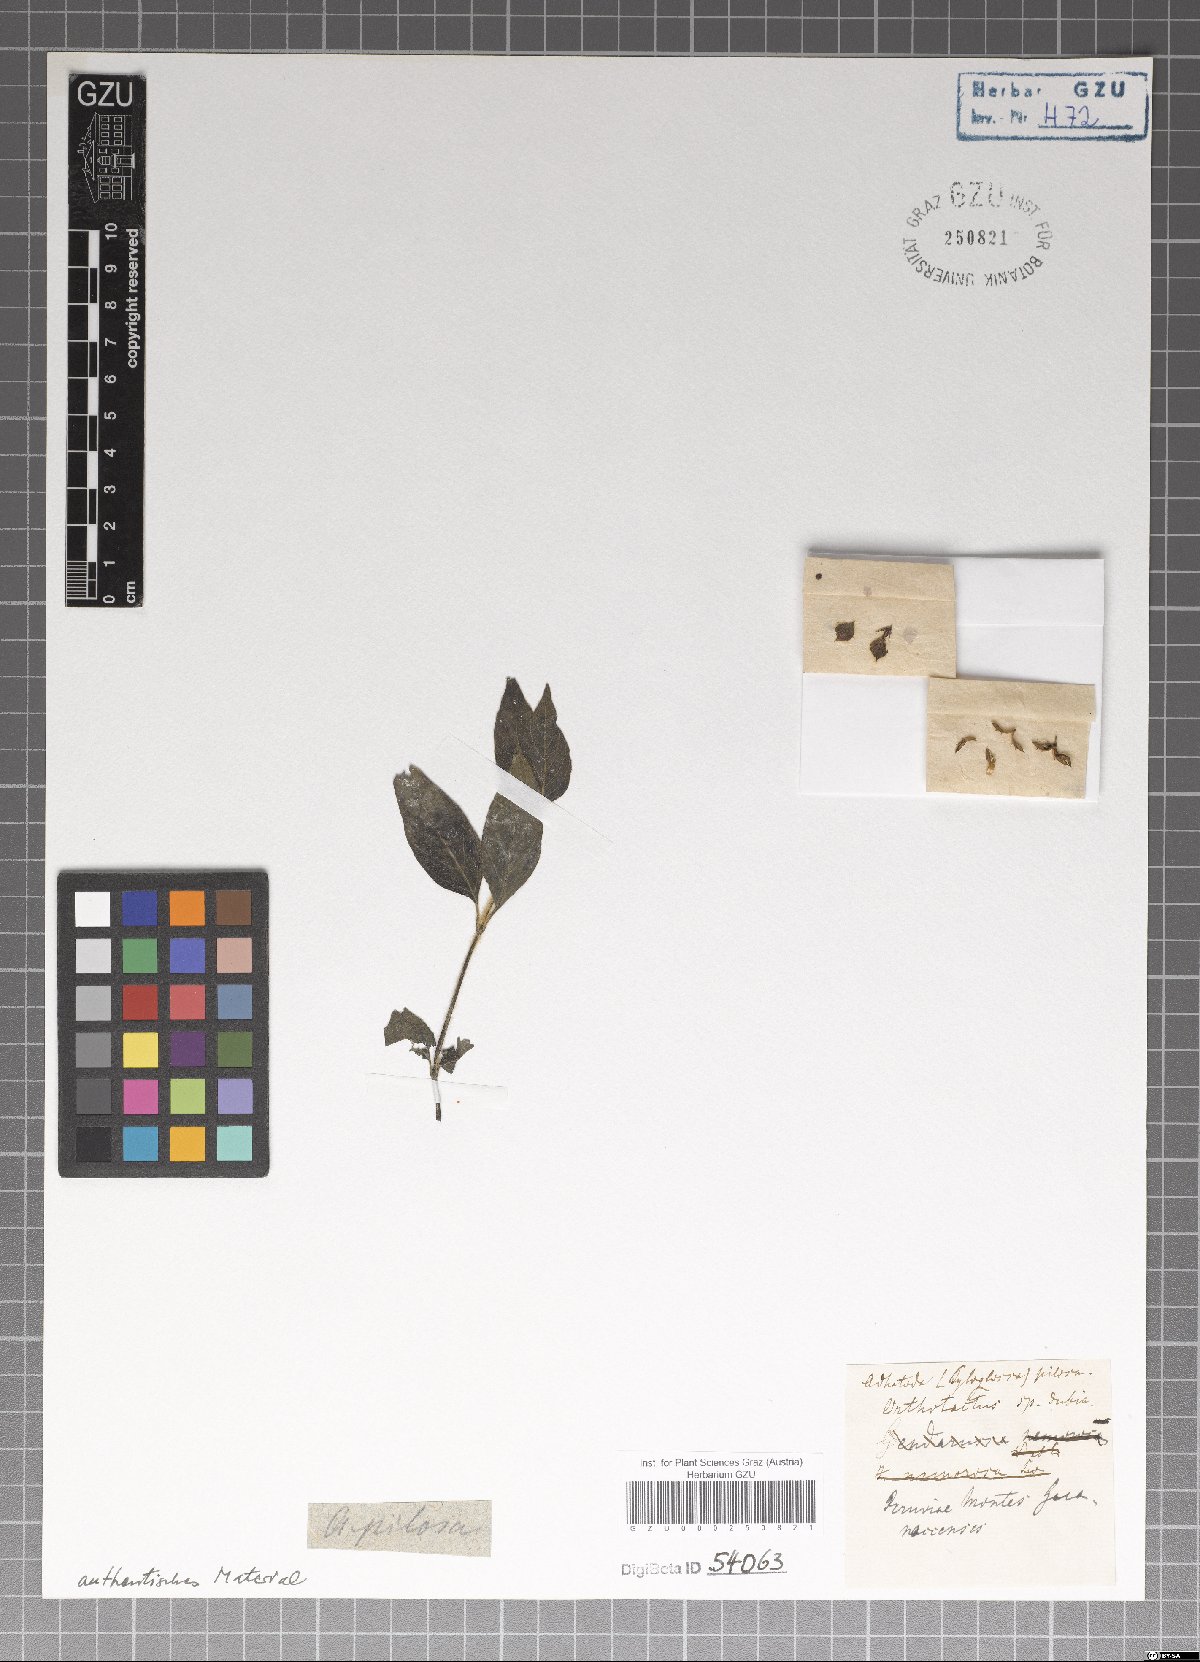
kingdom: Plantae
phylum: Tracheophyta
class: Magnoliopsida
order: Lamiales
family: Acanthaceae
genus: Justicia
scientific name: Justicia pilosa
